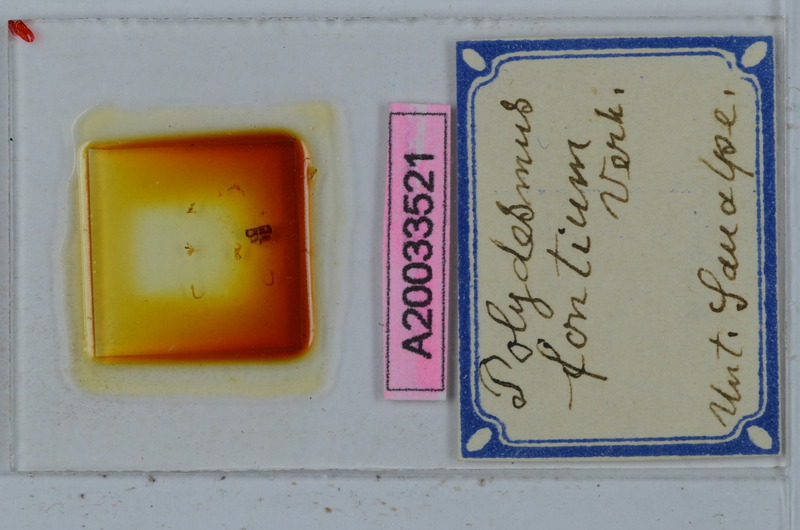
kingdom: Animalia
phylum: Arthropoda
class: Diplopoda
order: Polydesmida
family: Polydesmidae
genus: Polydesmus
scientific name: Polydesmus fontium
